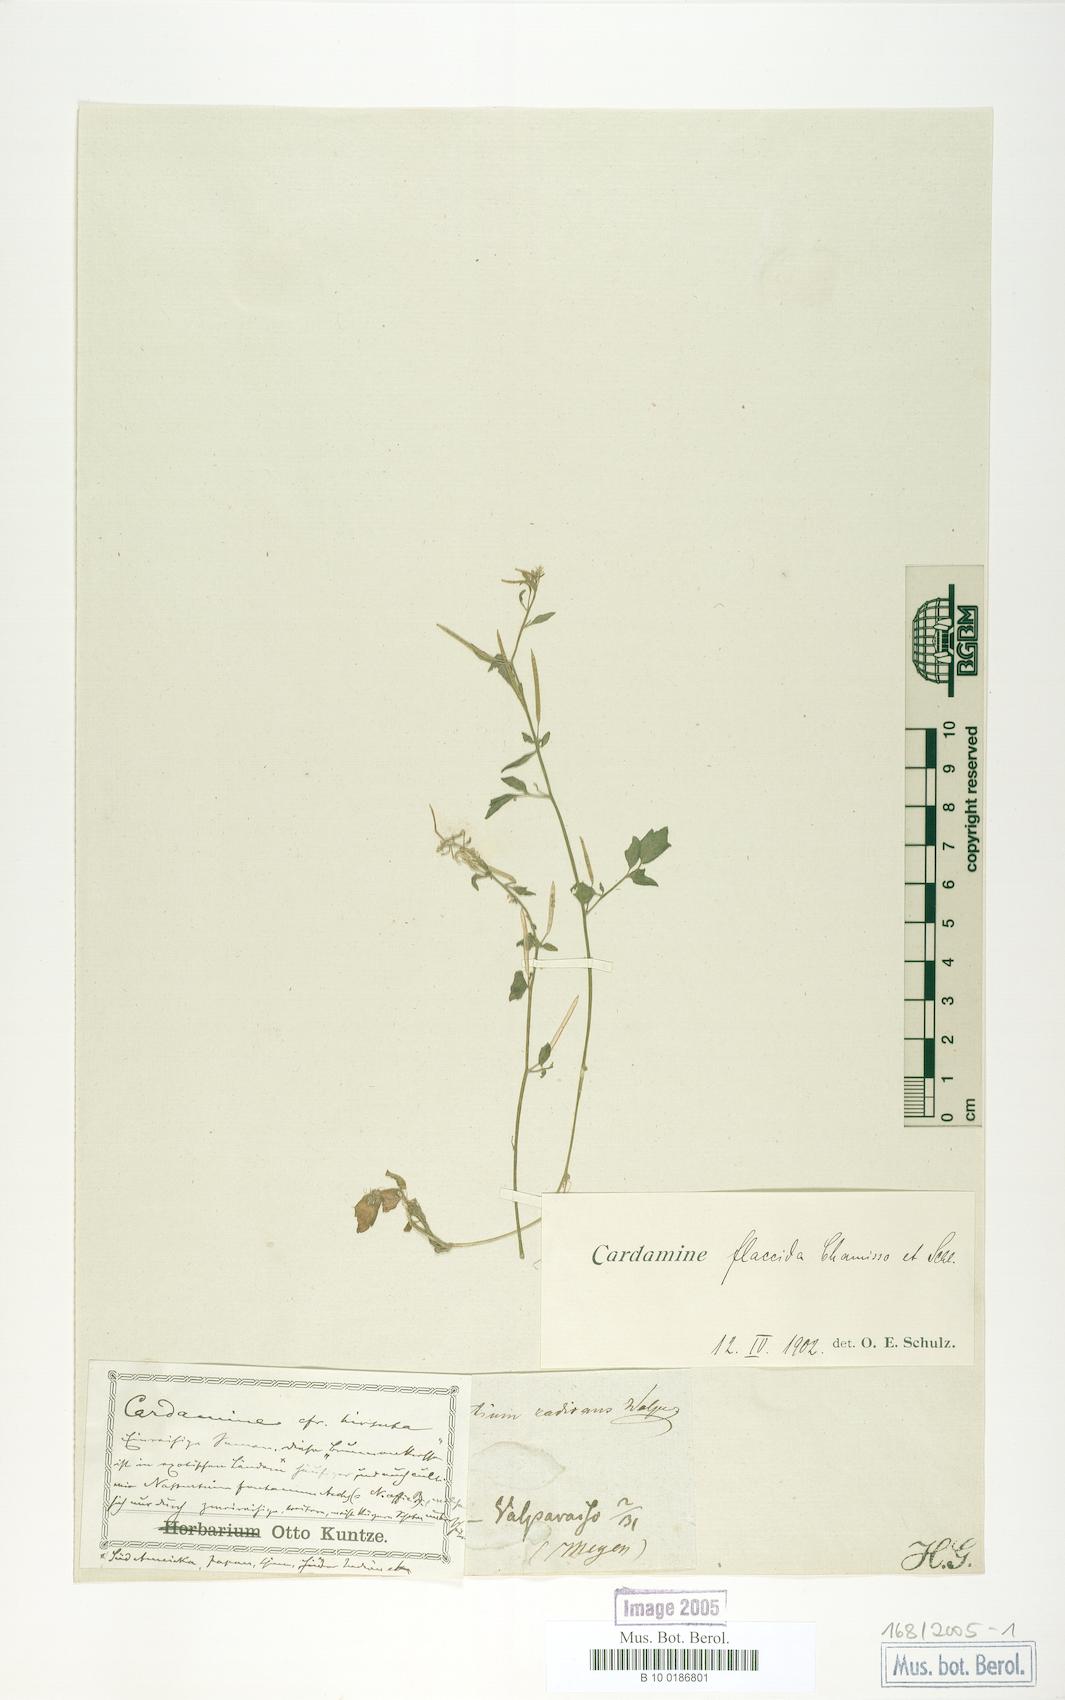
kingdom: Plantae
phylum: Tracheophyta
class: Magnoliopsida
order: Brassicales
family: Brassicaceae
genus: Cardamine
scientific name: Cardamine flaccida
